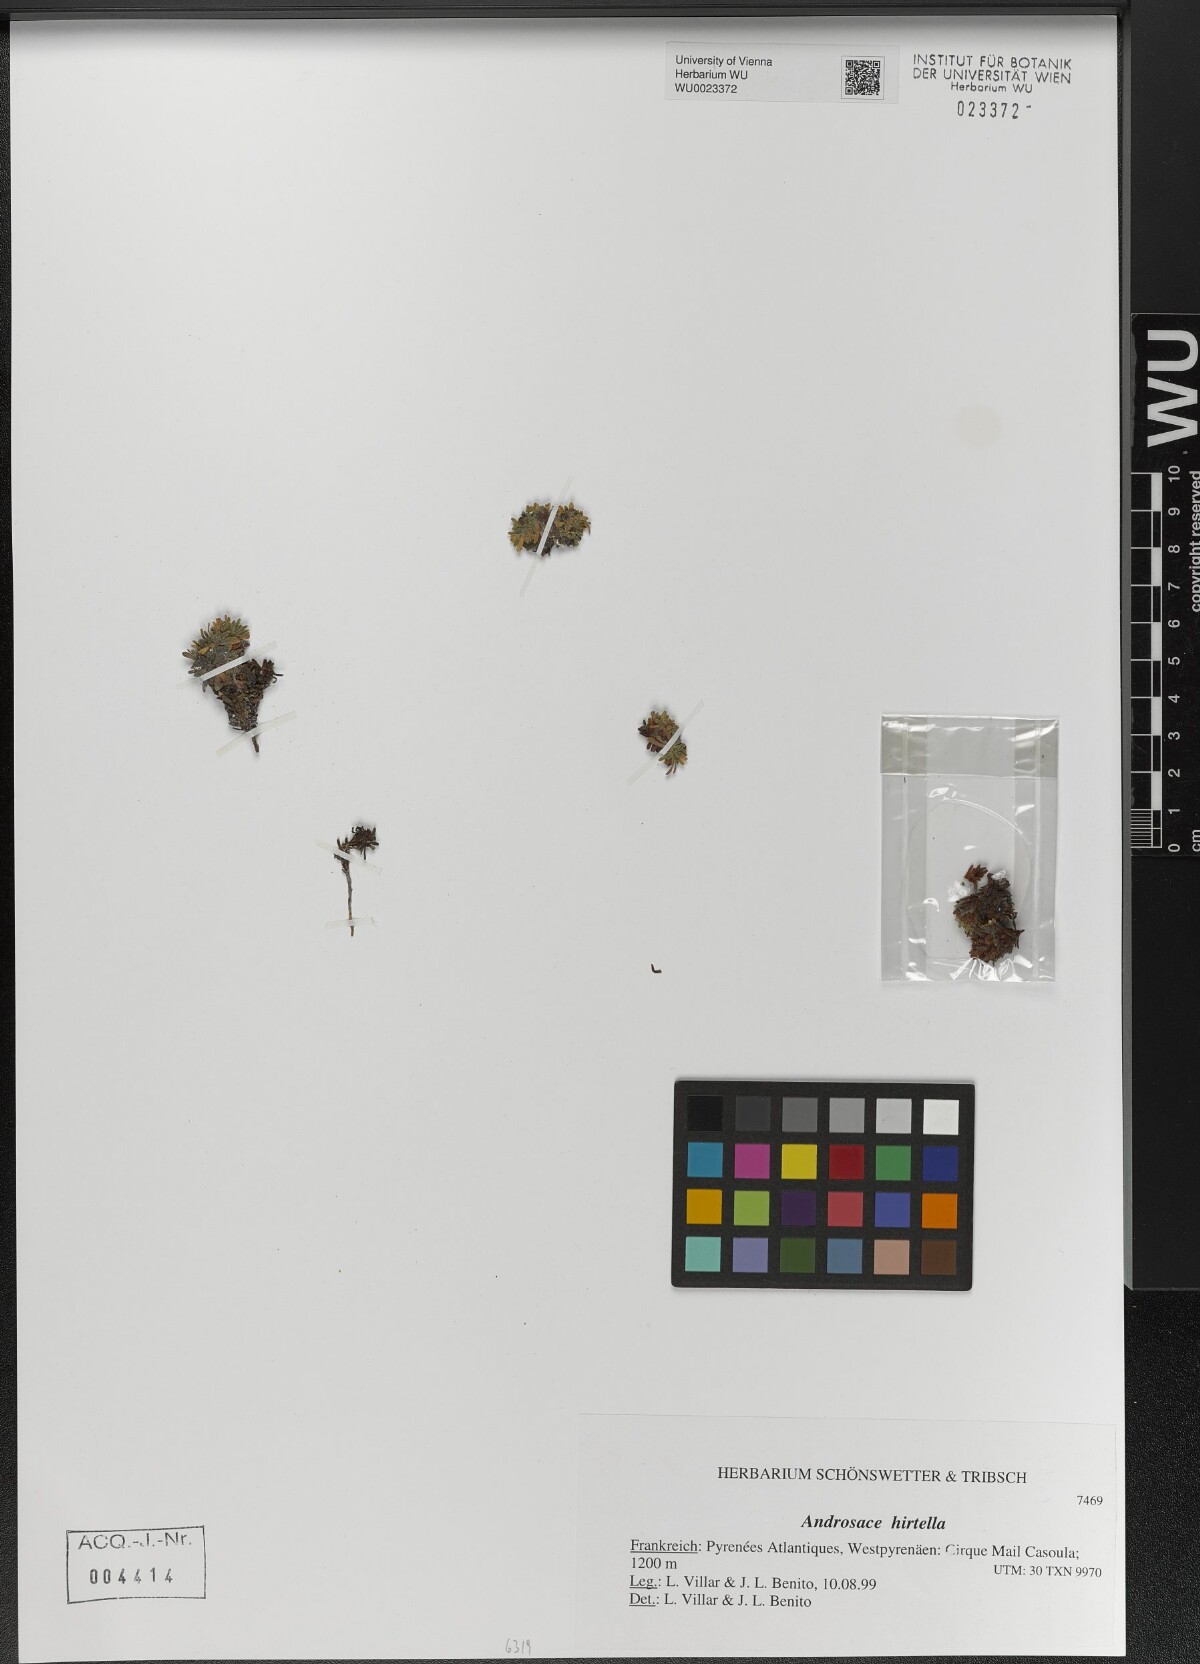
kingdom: Plantae
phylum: Tracheophyta
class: Magnoliopsida
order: Ericales
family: Primulaceae
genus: Androsace
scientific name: Androsace cylindrica
